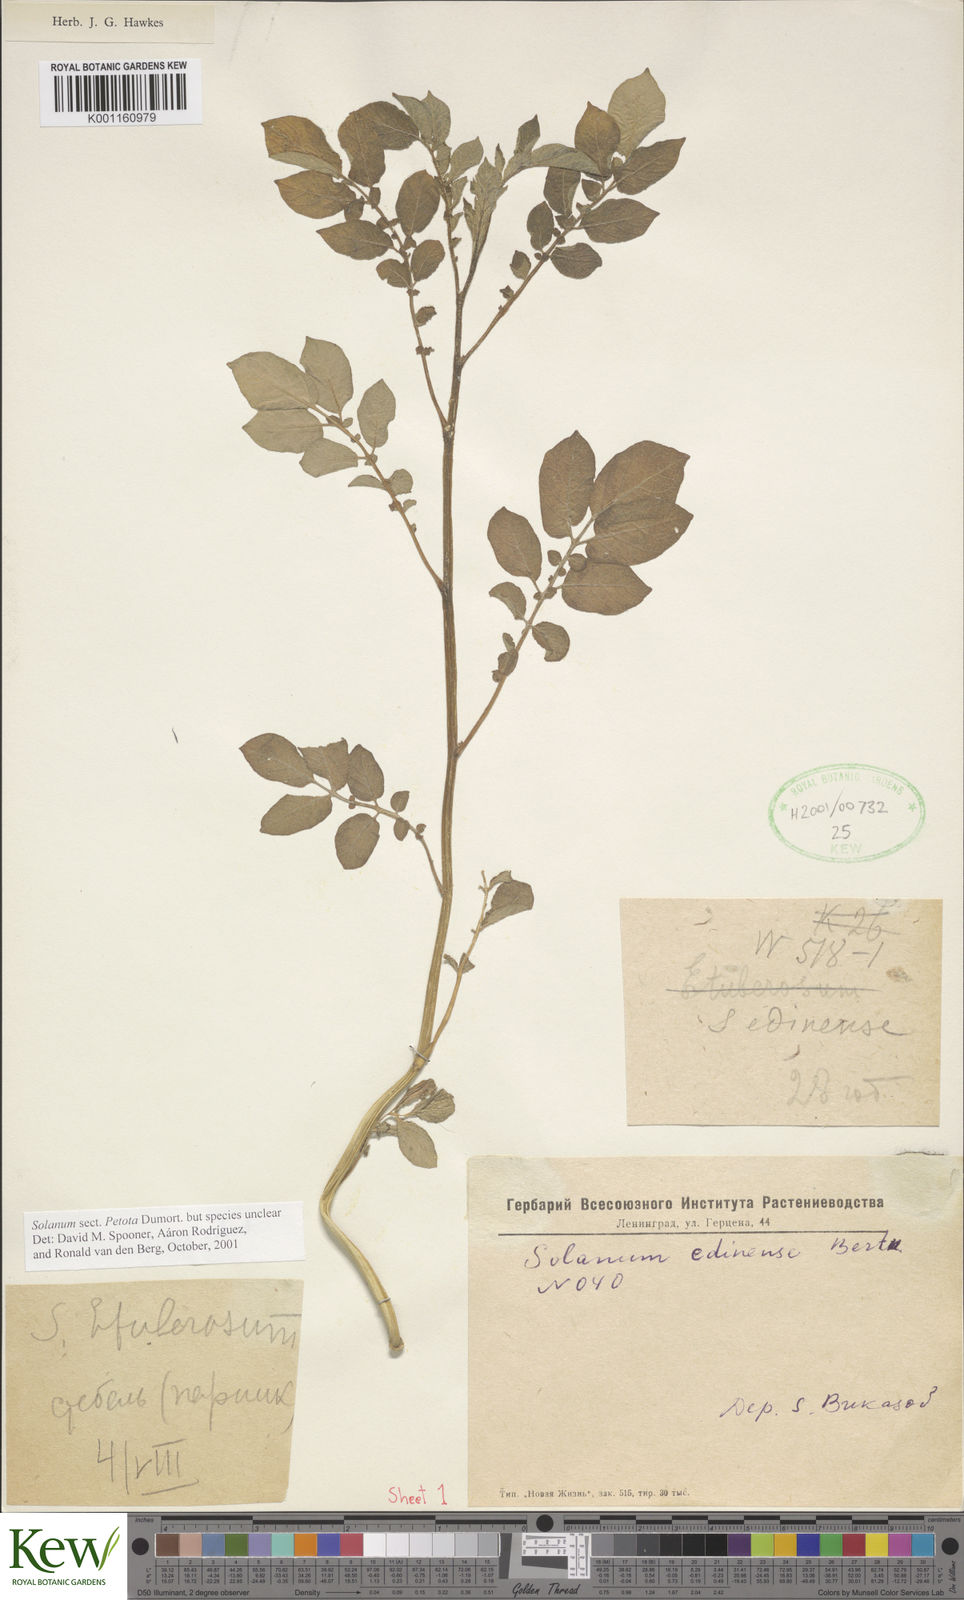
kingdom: Plantae
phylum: Tracheophyta
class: Magnoliopsida
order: Solanales
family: Solanaceae
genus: Solanum
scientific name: Solanum
